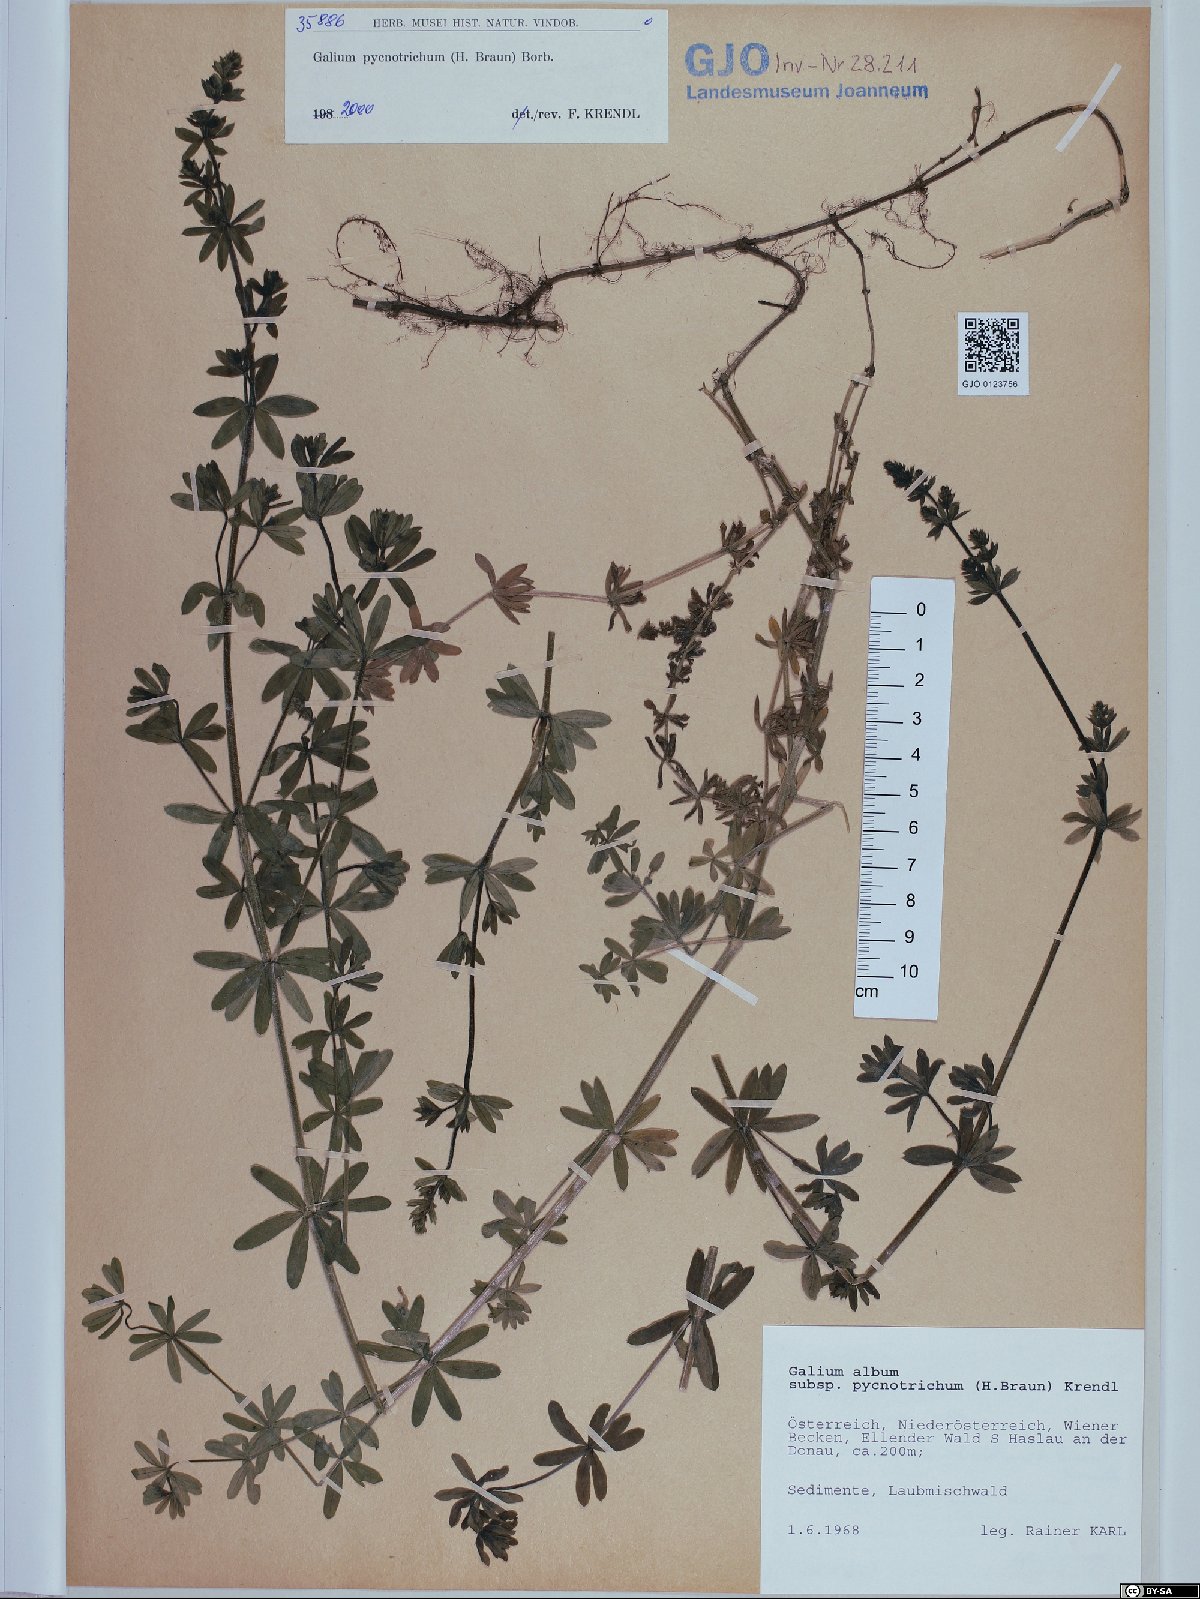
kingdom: Plantae
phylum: Tracheophyta
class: Magnoliopsida
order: Gentianales
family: Rubiaceae
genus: Galium
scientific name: Galium album
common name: White bedstraw
